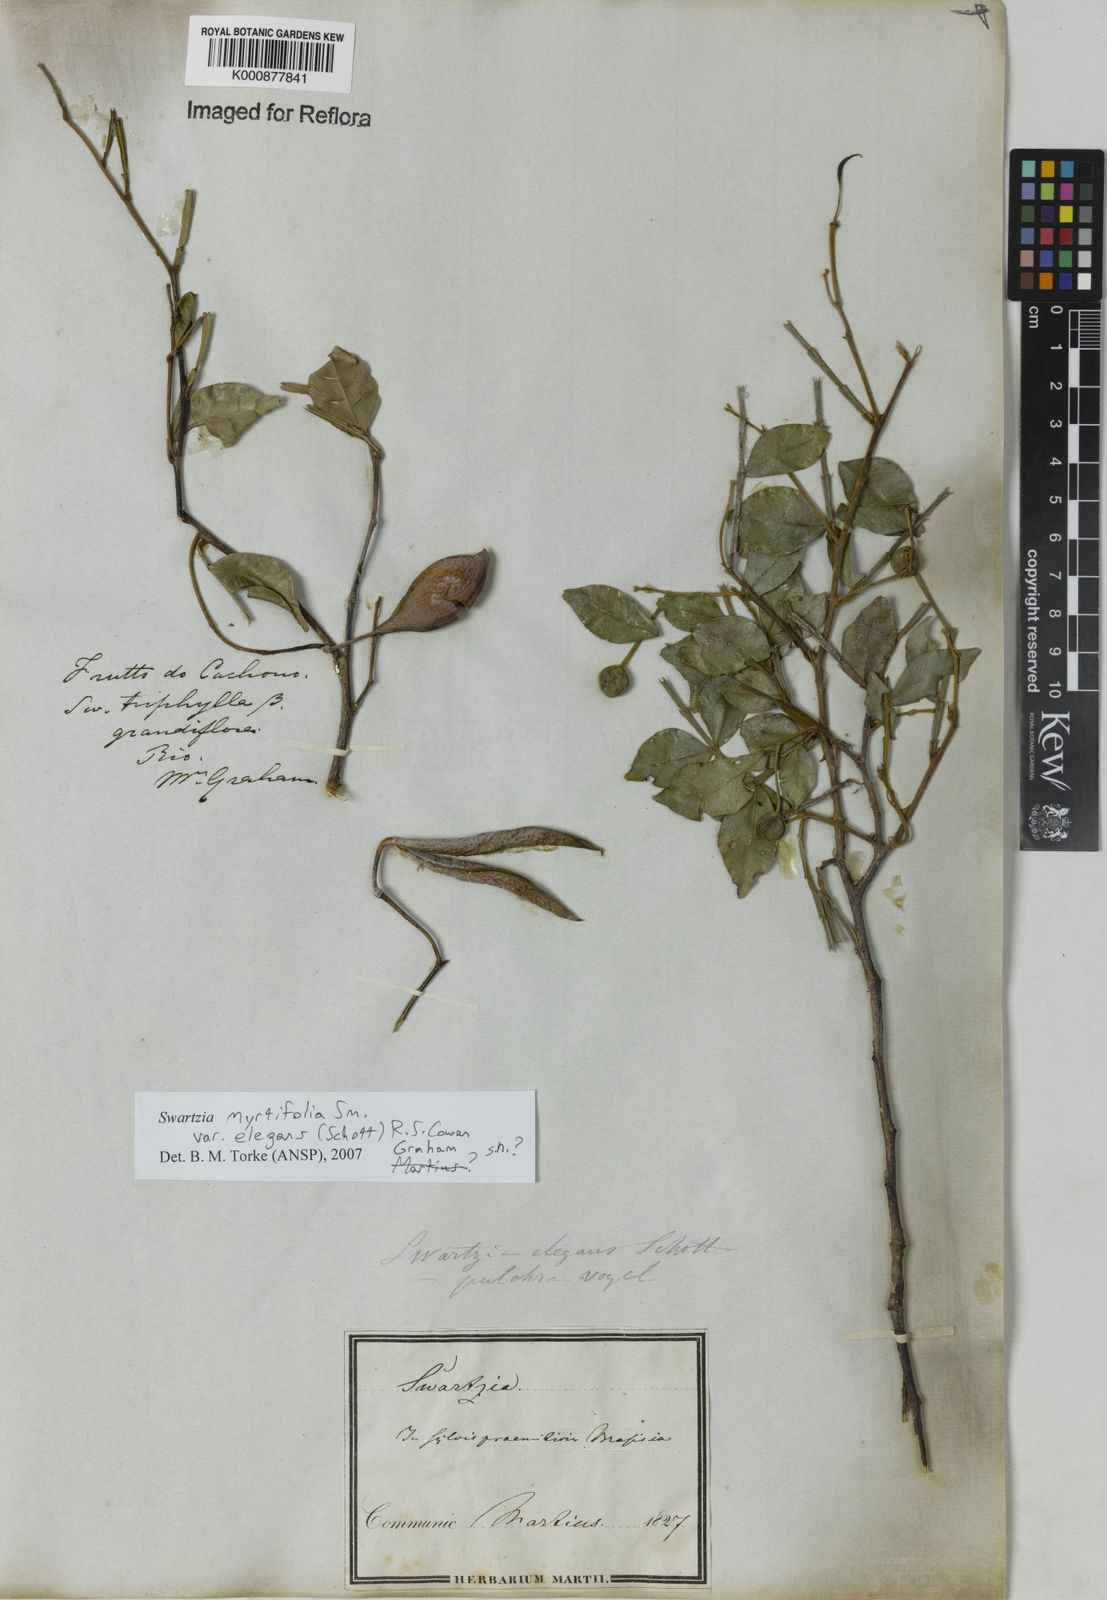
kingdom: Plantae
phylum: Tracheophyta
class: Magnoliopsida
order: Fabales
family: Fabaceae
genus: Swartzia
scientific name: Swartzia myrtifolia
